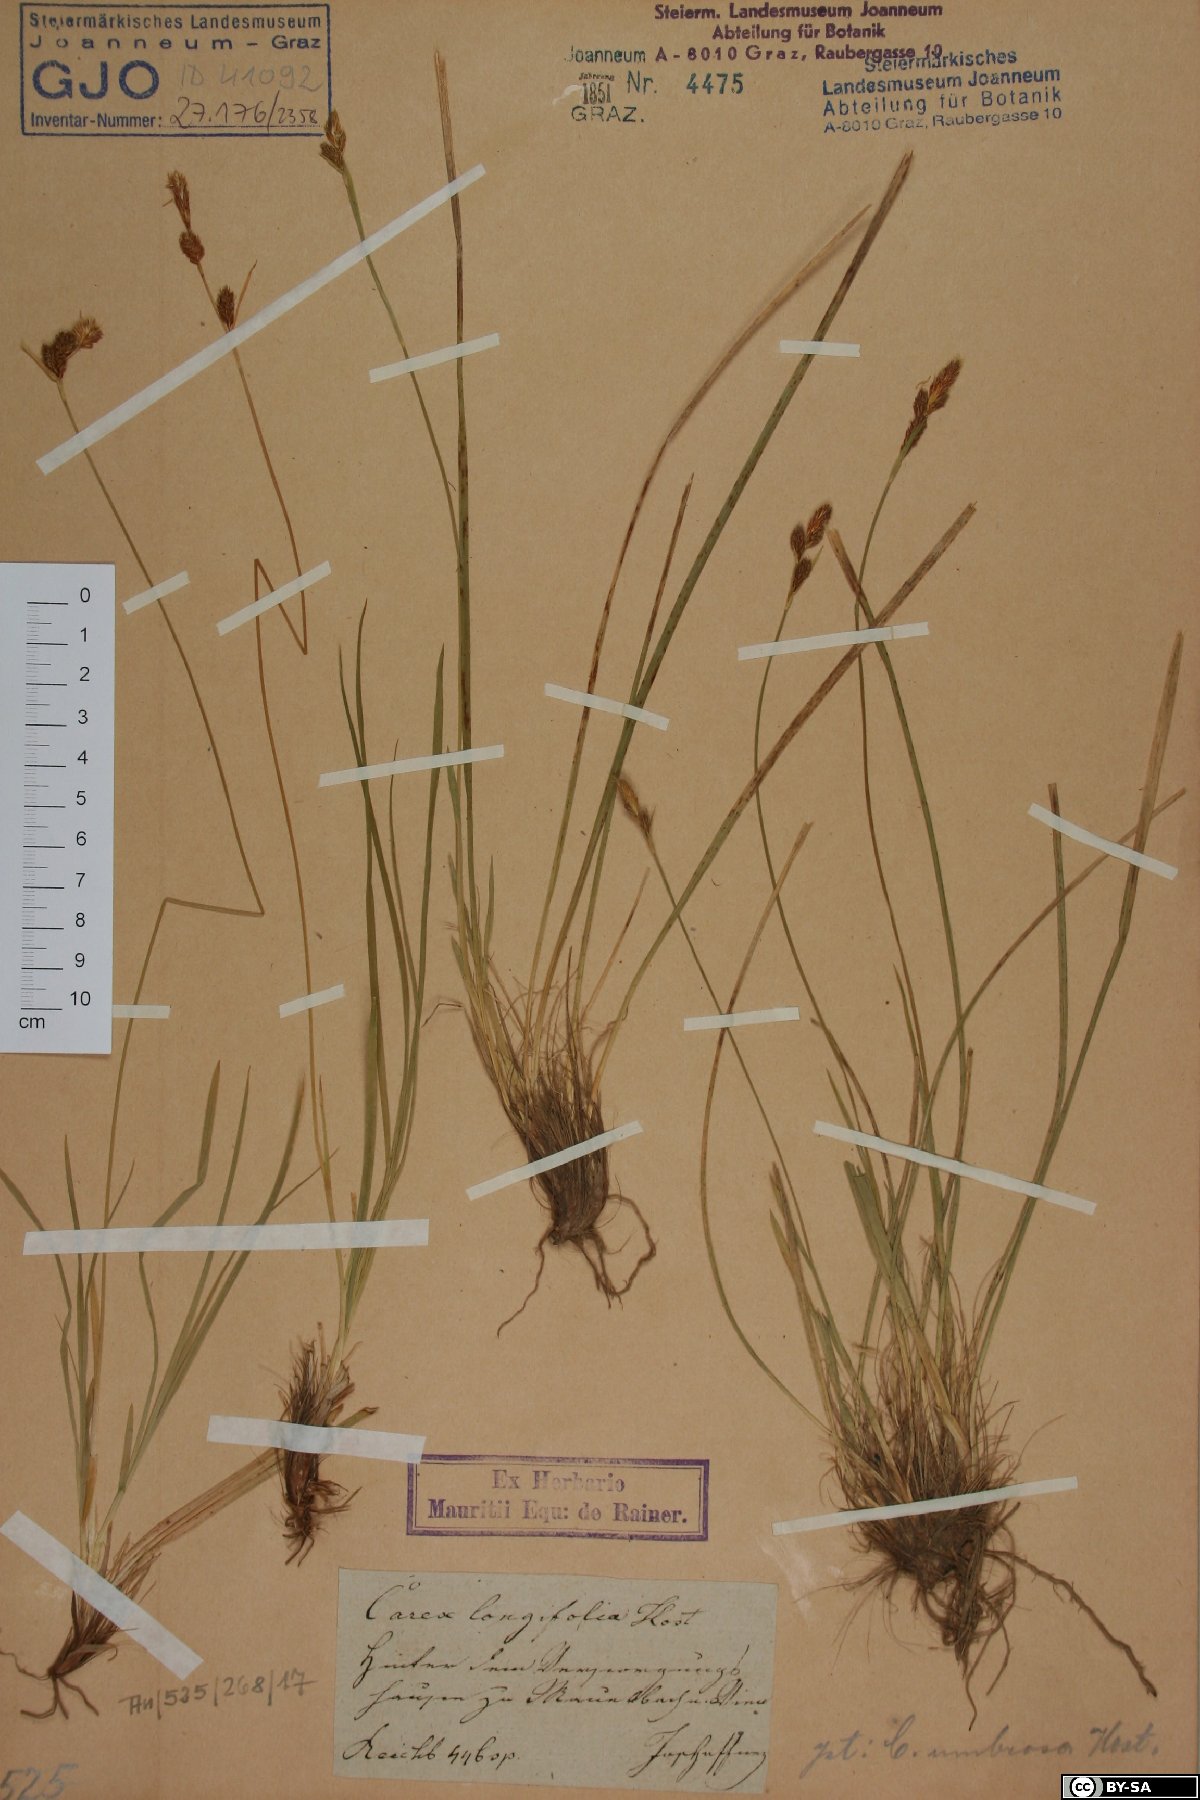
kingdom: Plantae
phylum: Tracheophyta
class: Liliopsida
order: Poales
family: Cyperaceae
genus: Carex
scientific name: Carex umbrosa
